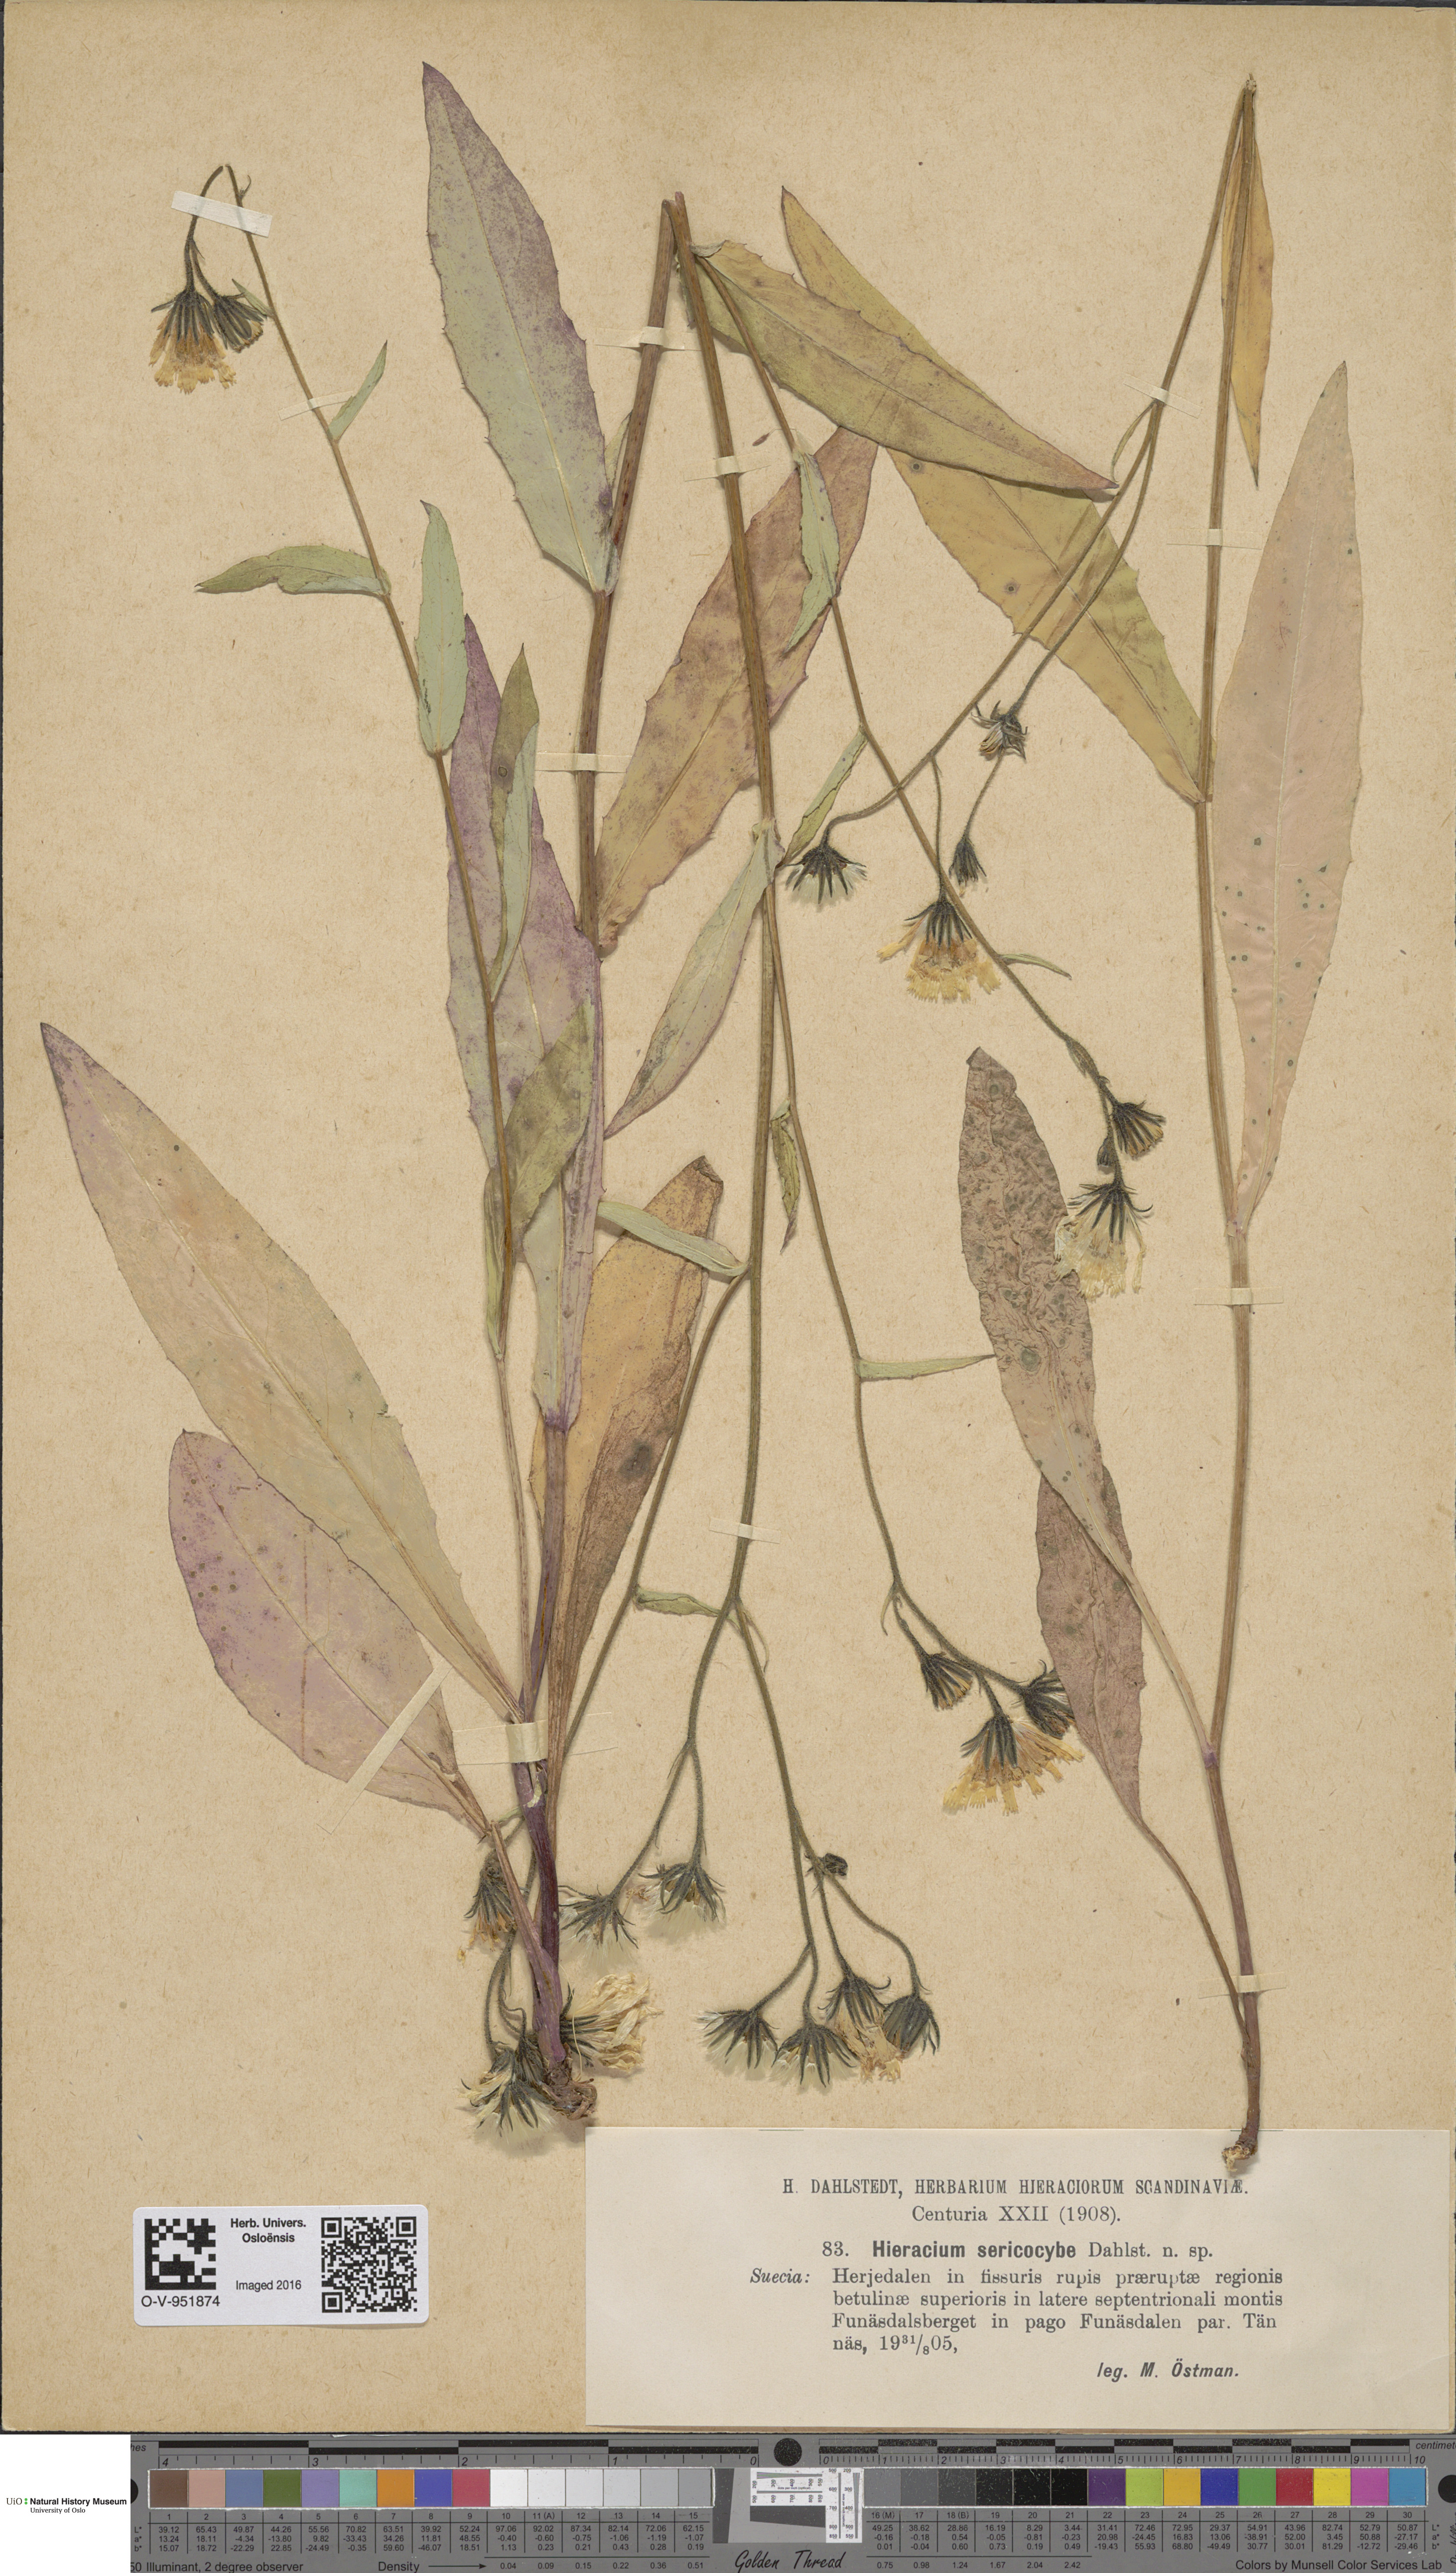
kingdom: Plantae
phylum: Tracheophyta
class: Magnoliopsida
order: Asterales
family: Asteraceae
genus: Hieracium
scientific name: Hieracium
